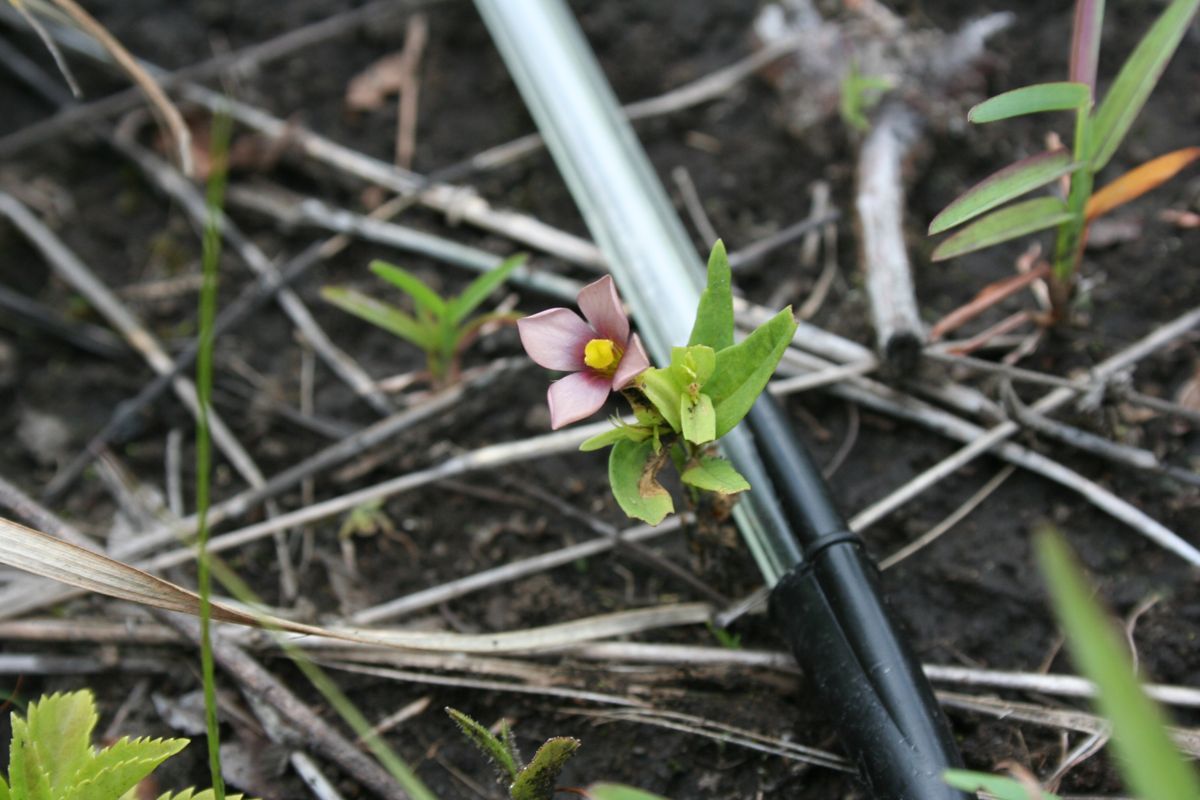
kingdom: Plantae
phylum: Tracheophyta
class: Magnoliopsida
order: Gentianales
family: Gentianaceae
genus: Schultesia
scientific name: Schultesia guianensis
